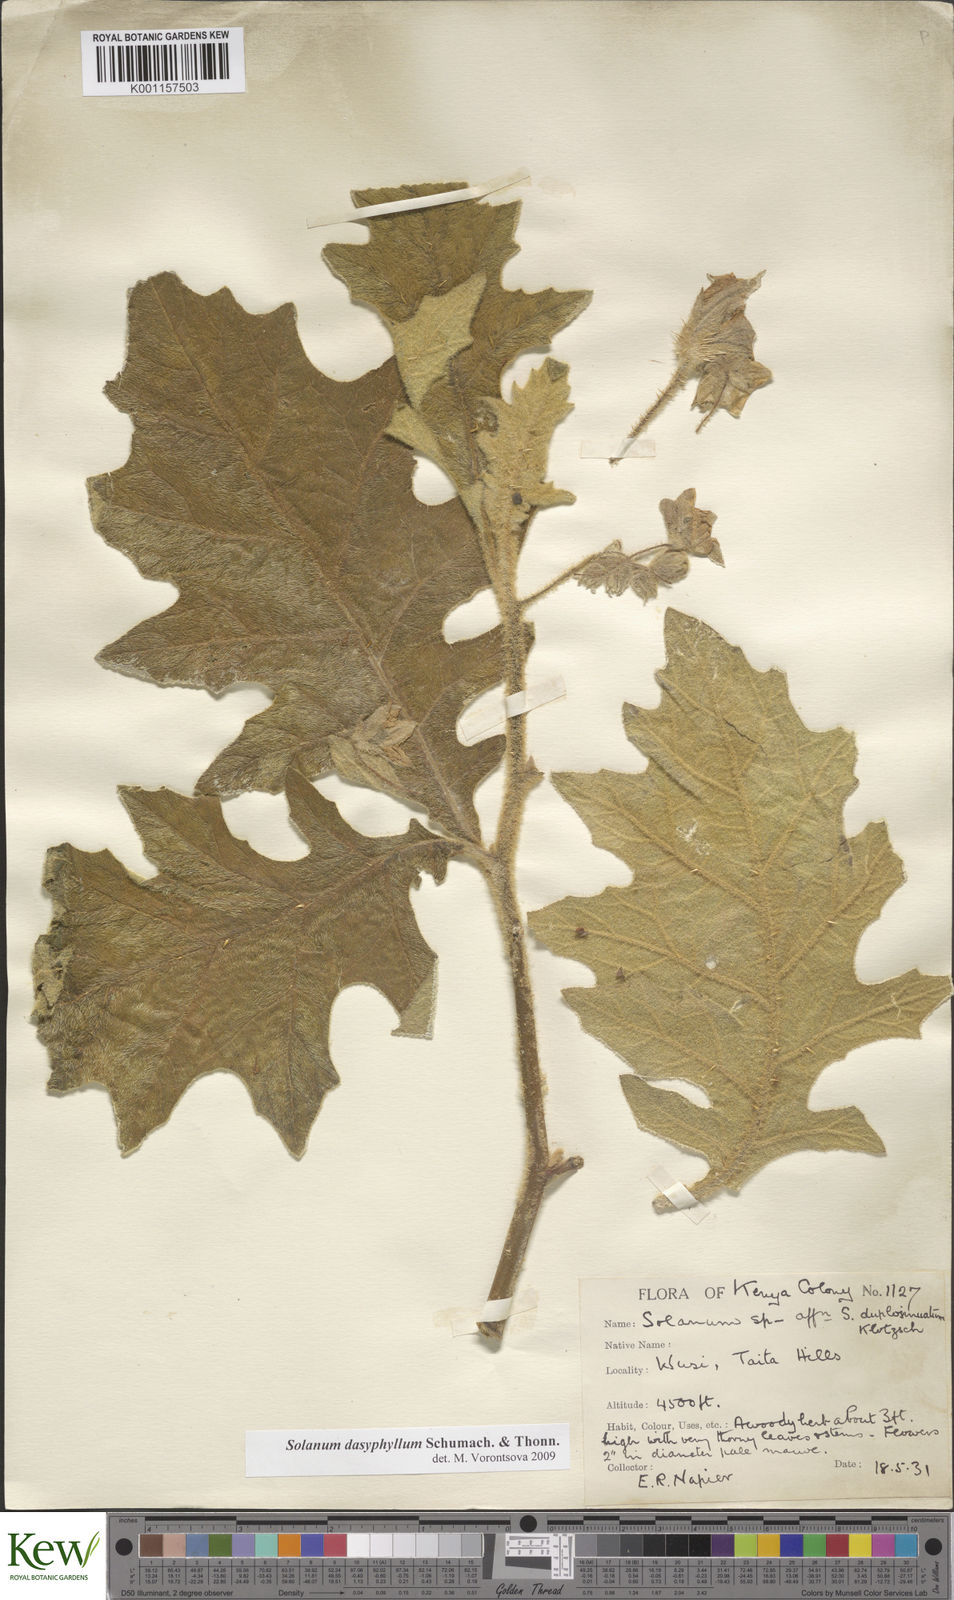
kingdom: Plantae
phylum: Tracheophyta
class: Magnoliopsida
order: Solanales
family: Solanaceae
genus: Solanum
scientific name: Solanum dasyphyllum
